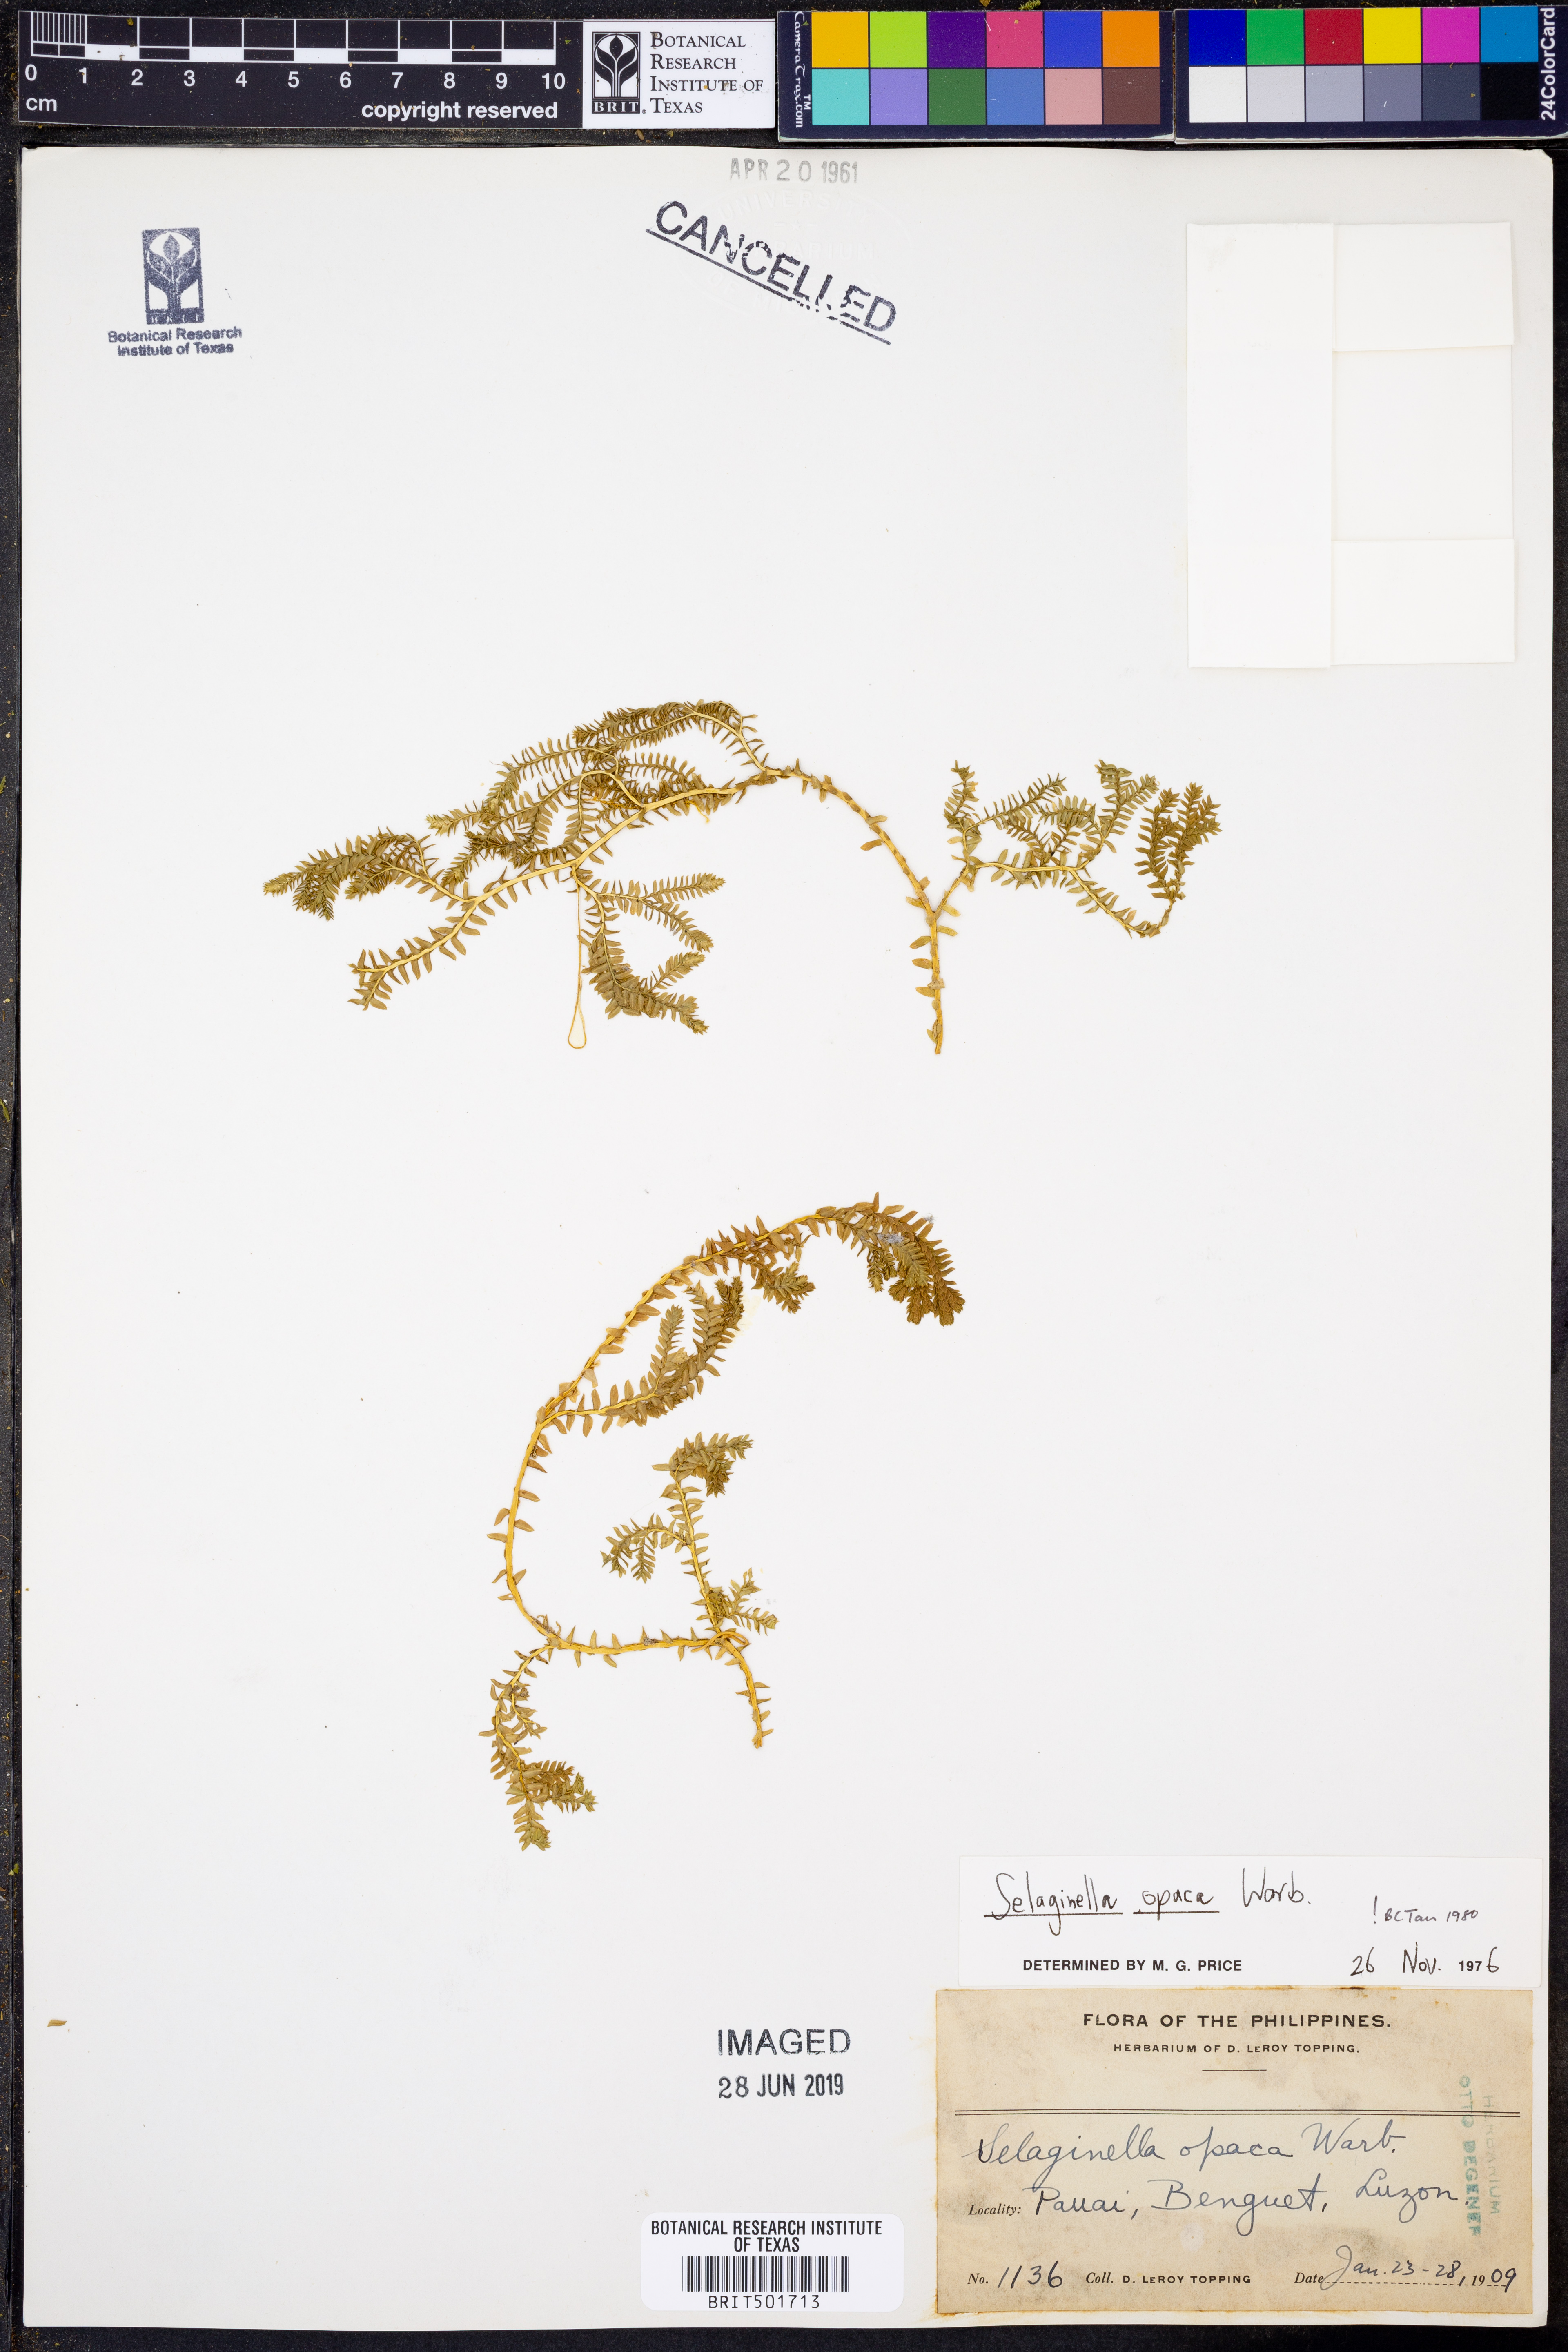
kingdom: Plantae
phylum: Tracheophyta
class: Lycopodiopsida
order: Selaginellales
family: Selaginellaceae
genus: Selaginella
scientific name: Selaginella opaca
